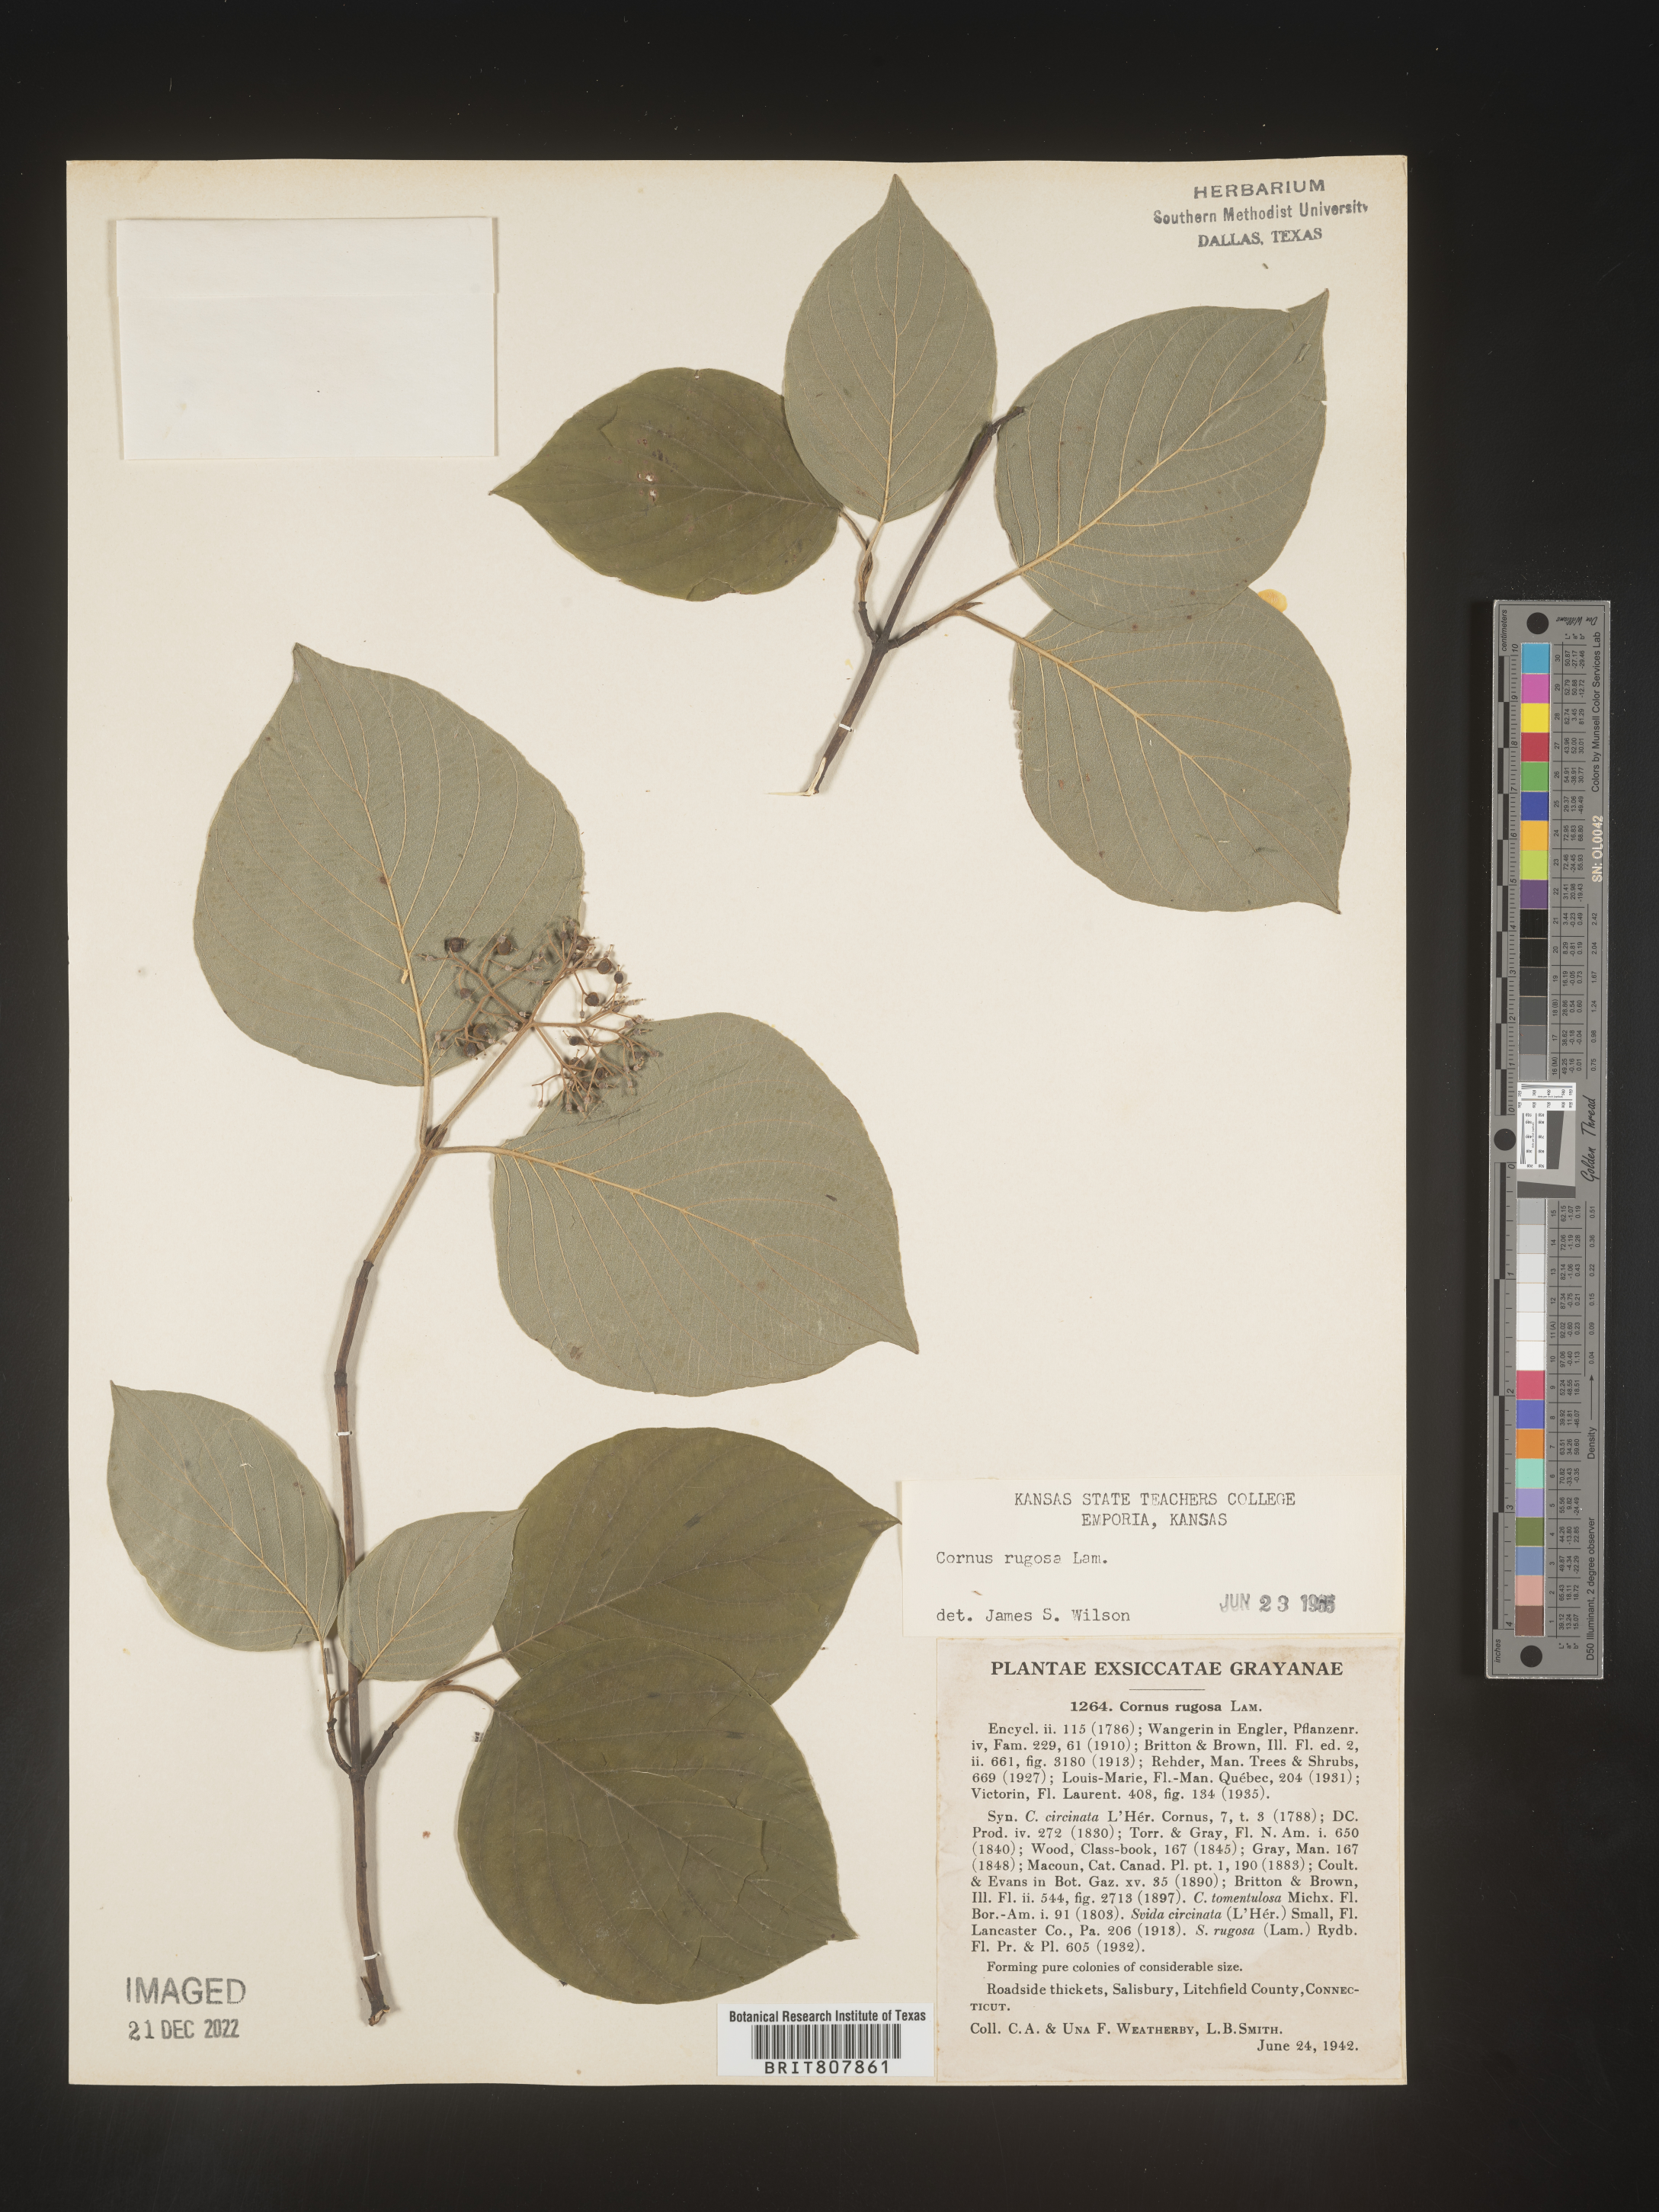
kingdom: Plantae
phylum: Tracheophyta
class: Magnoliopsida
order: Cornales
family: Cornaceae
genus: Cornus
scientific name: Cornus rugosa
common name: Round-leaf dogwood
